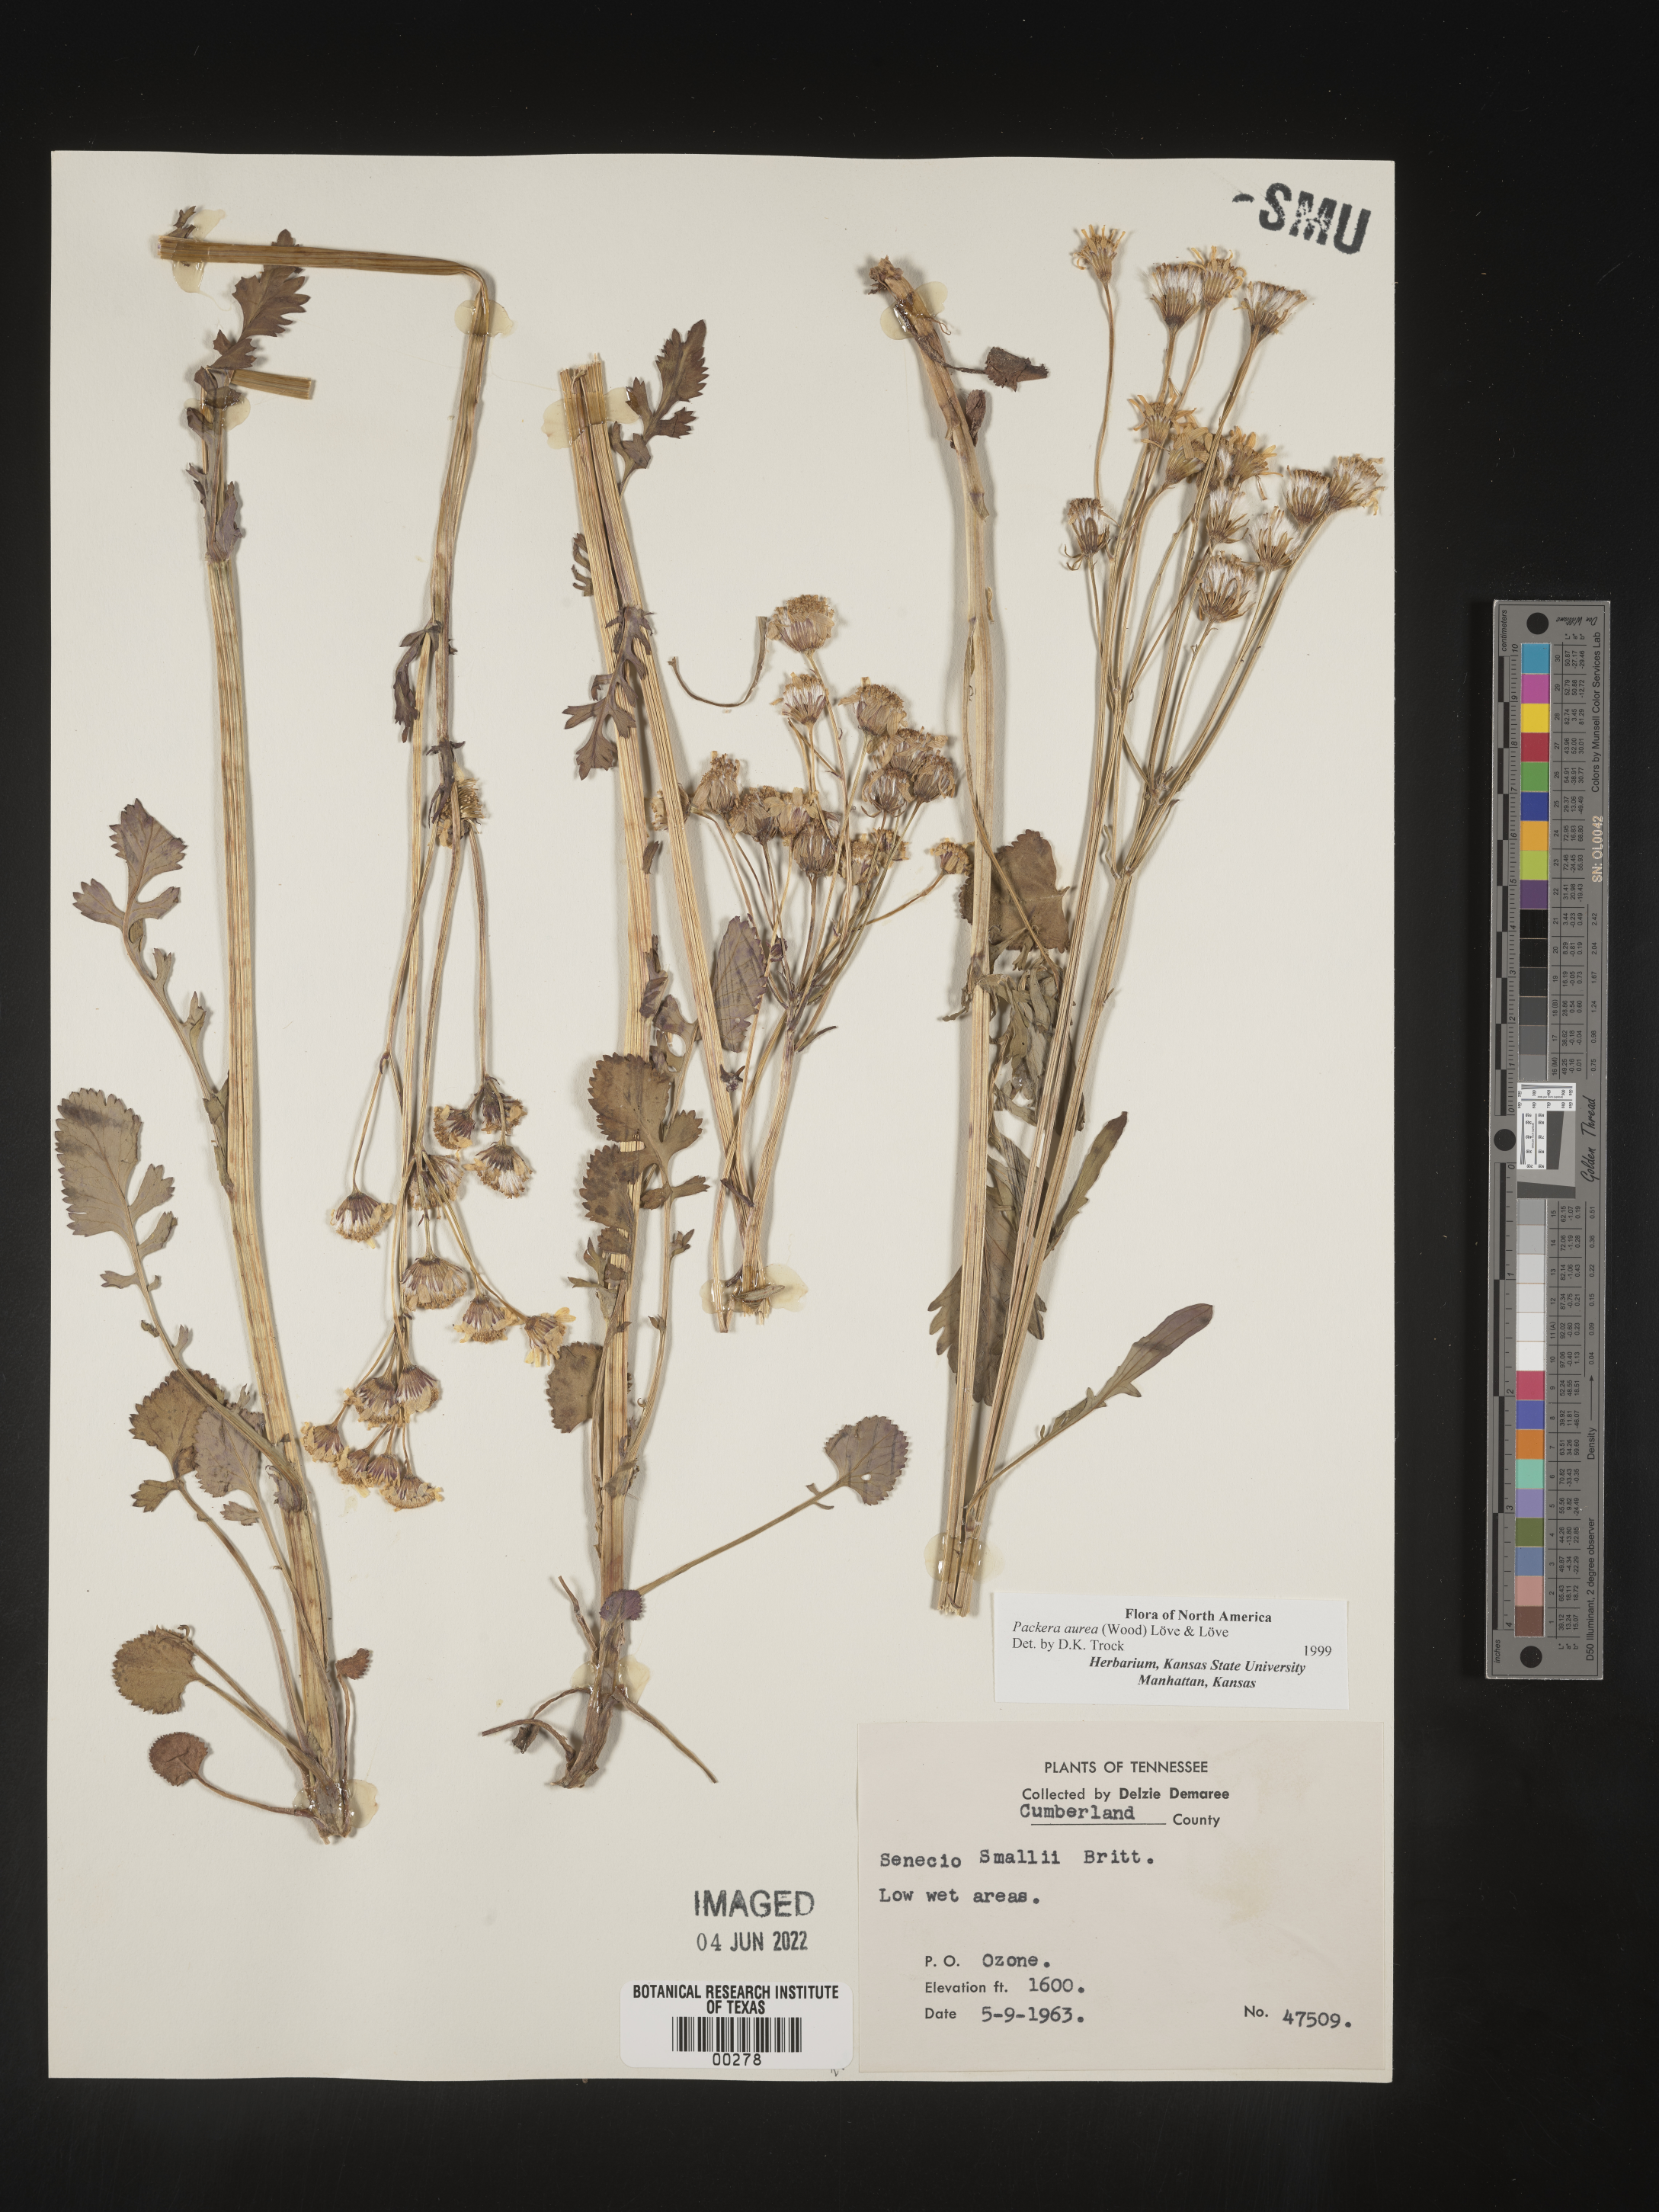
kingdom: Plantae
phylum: Tracheophyta
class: Magnoliopsida
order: Asterales
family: Asteraceae
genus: Packera
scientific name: Packera aurea
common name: Golden groundsel
